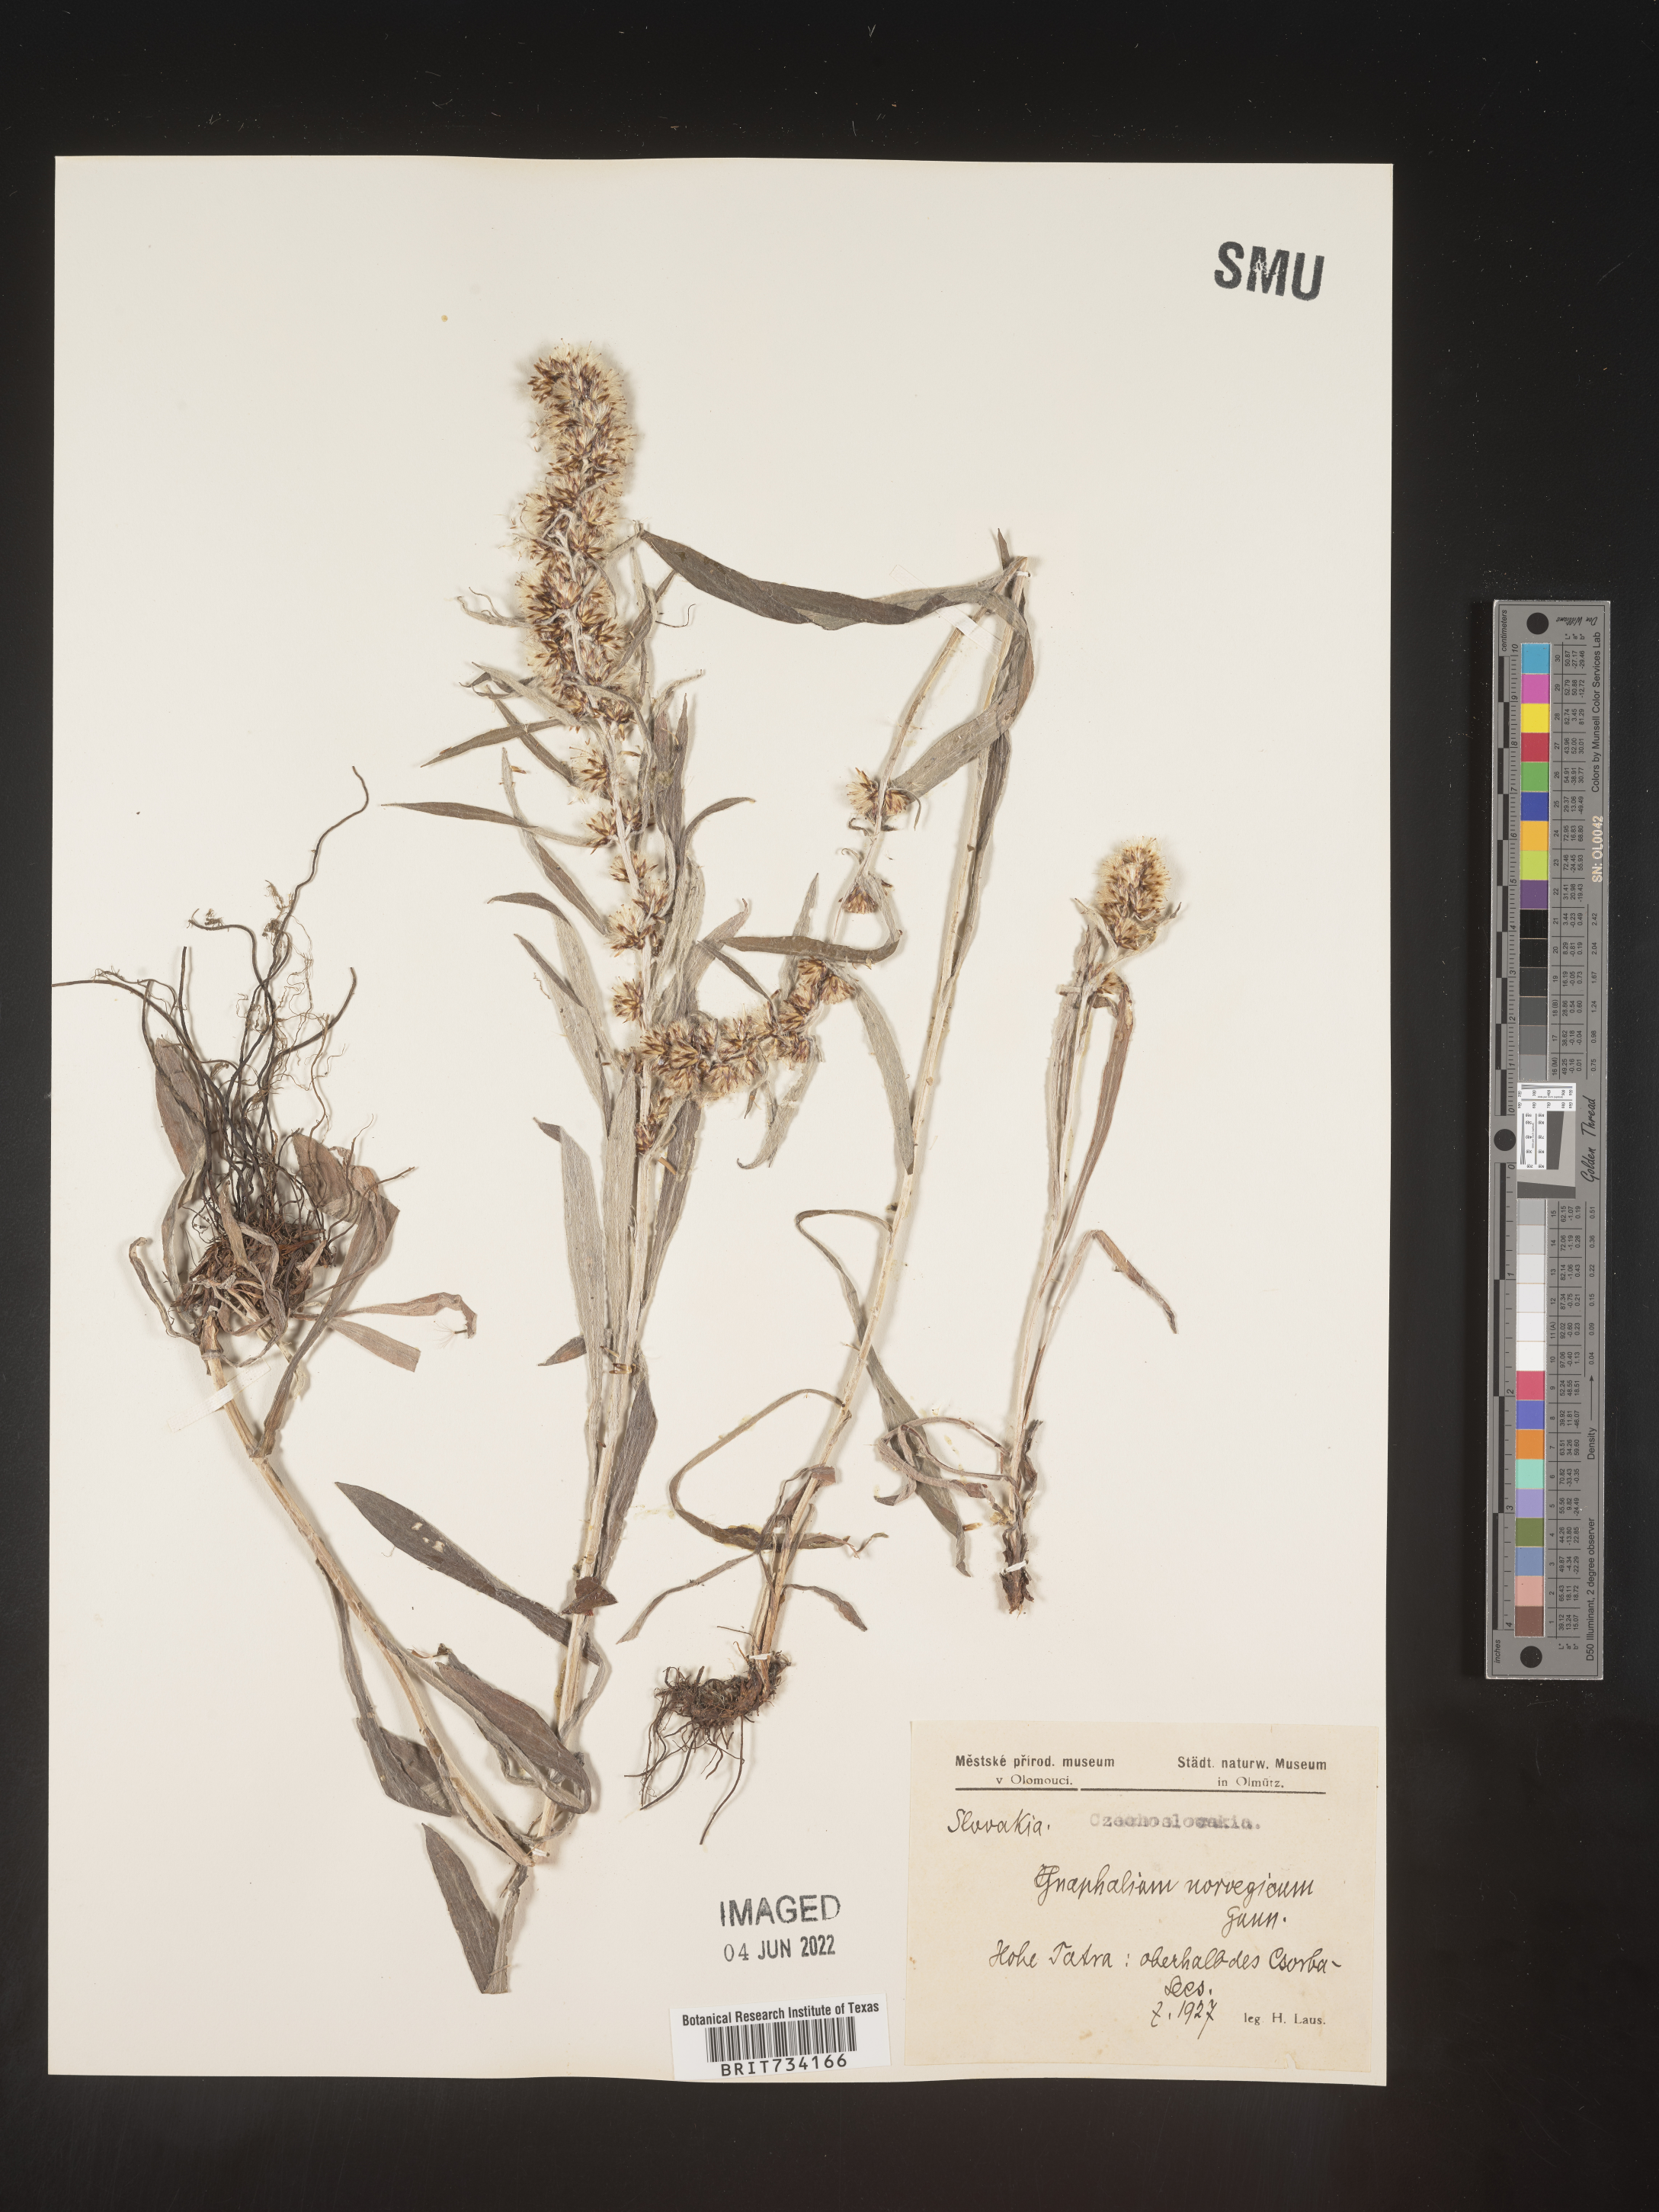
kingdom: Plantae
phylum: Tracheophyta
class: Magnoliopsida
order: Asterales
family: Asteraceae
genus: Omalotheca
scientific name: Omalotheca norvegica
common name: Norwegian arctic-cudweed
